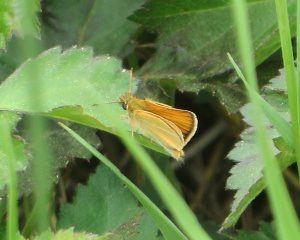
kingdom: Animalia
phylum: Arthropoda
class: Insecta
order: Lepidoptera
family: Hesperiidae
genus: Thymelicus
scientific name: Thymelicus lineola
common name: European Skipper
